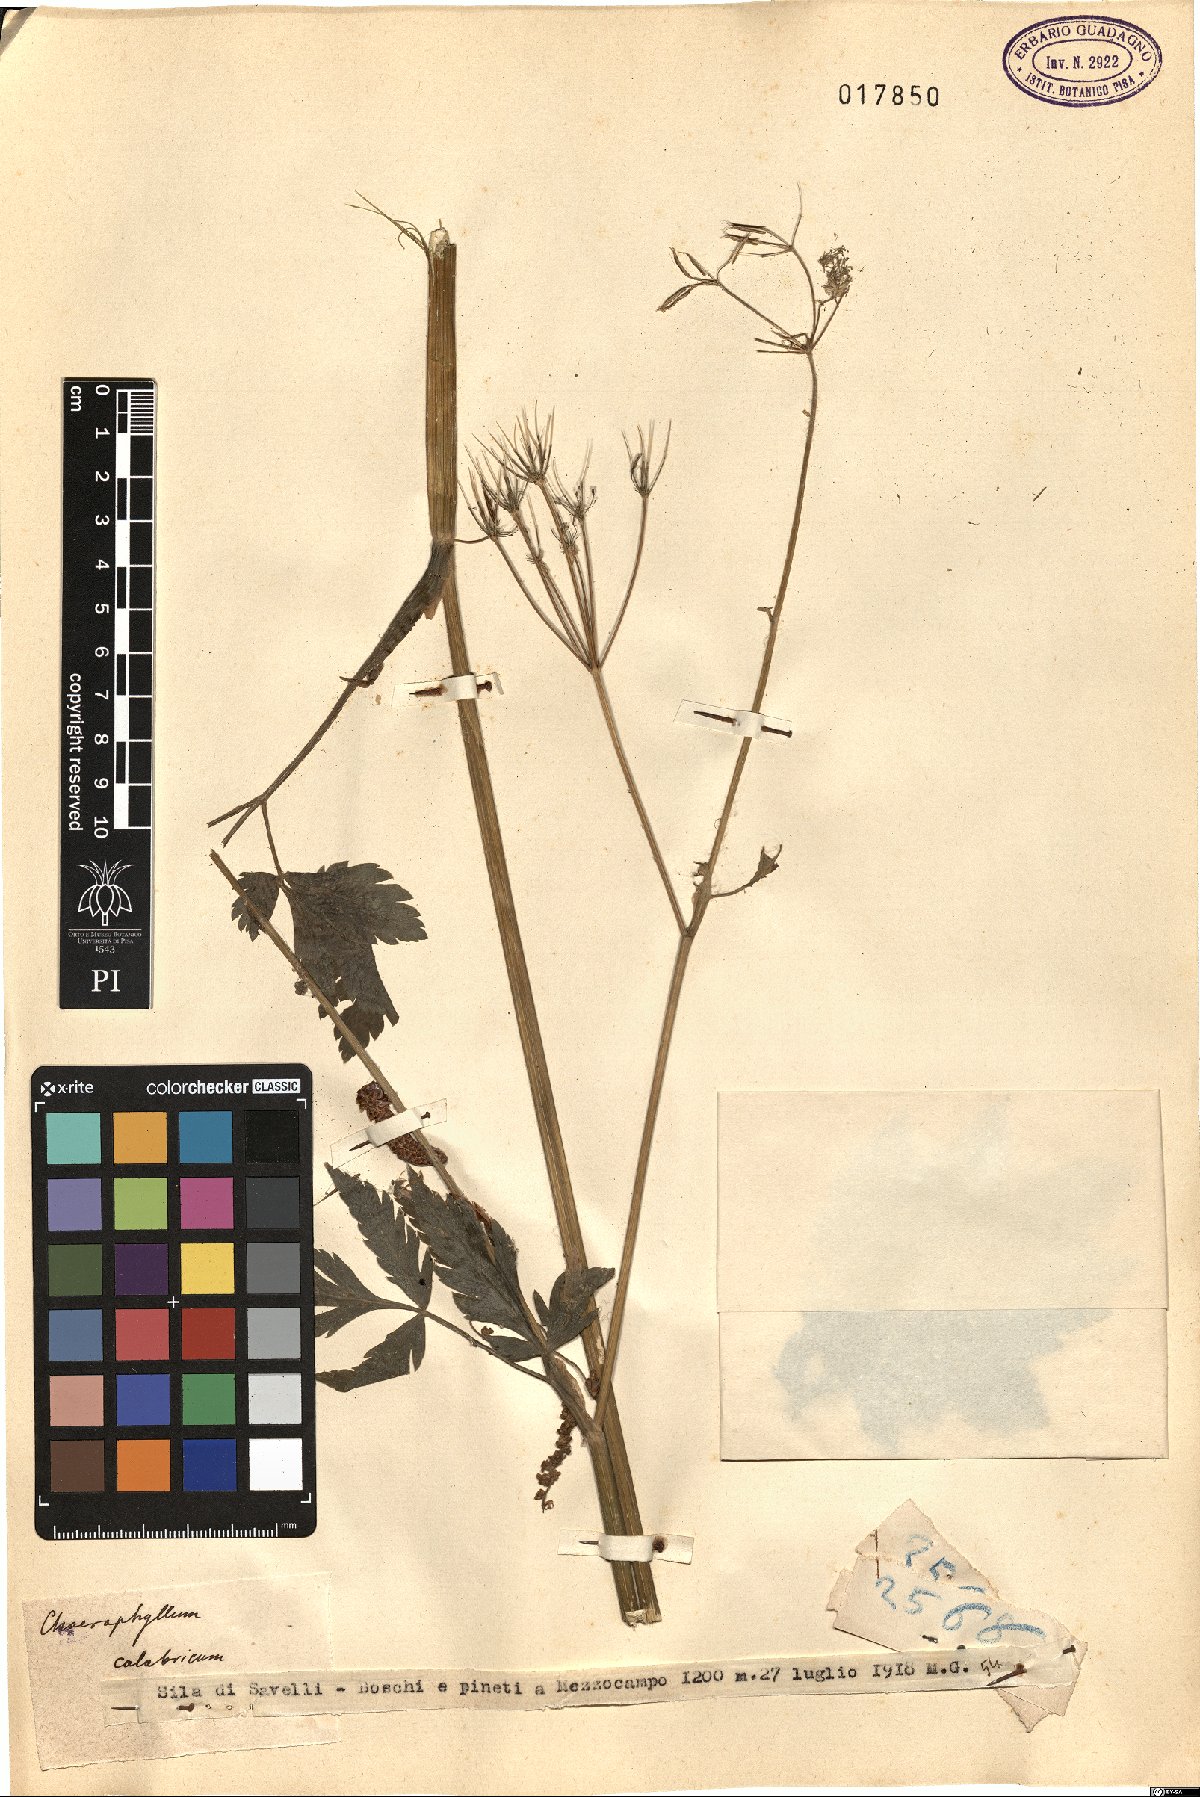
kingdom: Plantae
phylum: Tracheophyta
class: Magnoliopsida
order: Apiales
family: Apiaceae
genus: Chaerophyllum
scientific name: Chaerophyllum hirsutum
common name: Hairy chervil
